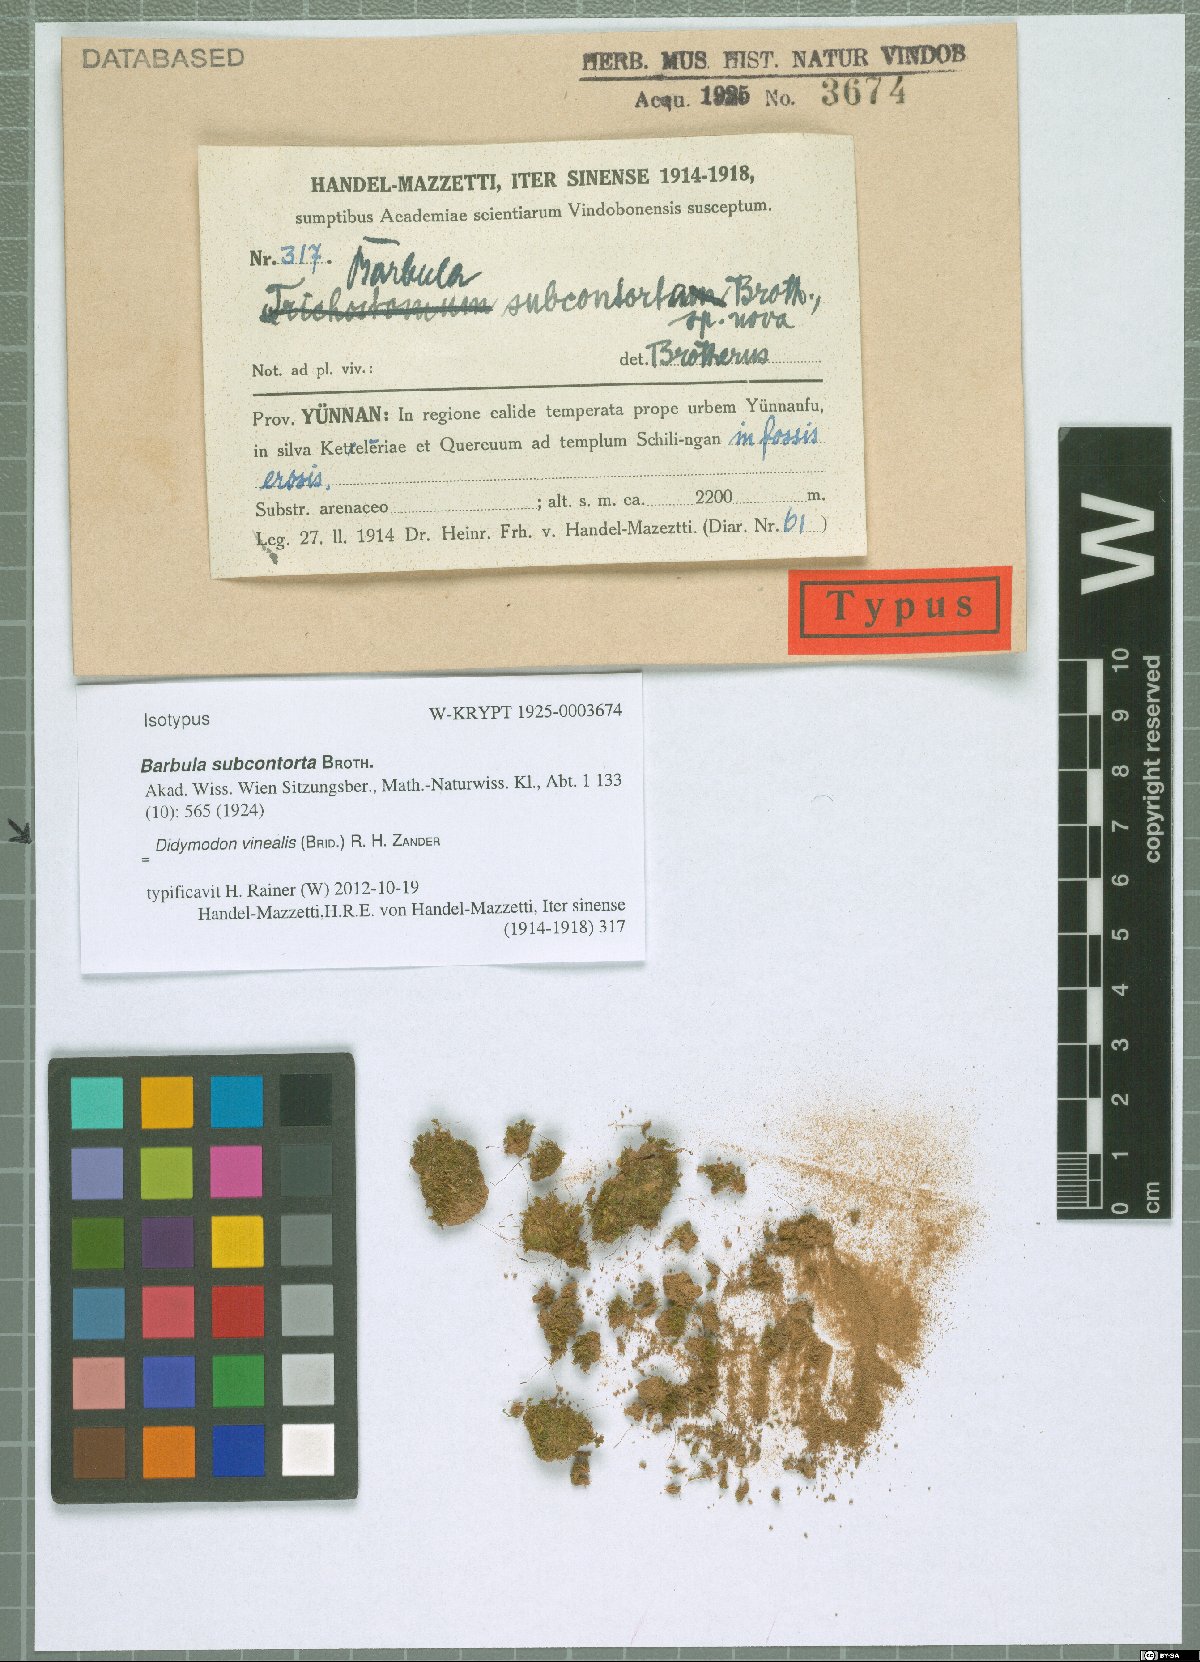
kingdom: Plantae
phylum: Bryophyta
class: Bryopsida
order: Pottiales
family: Pottiaceae
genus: Vinealobryum
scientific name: Vinealobryum vineale
